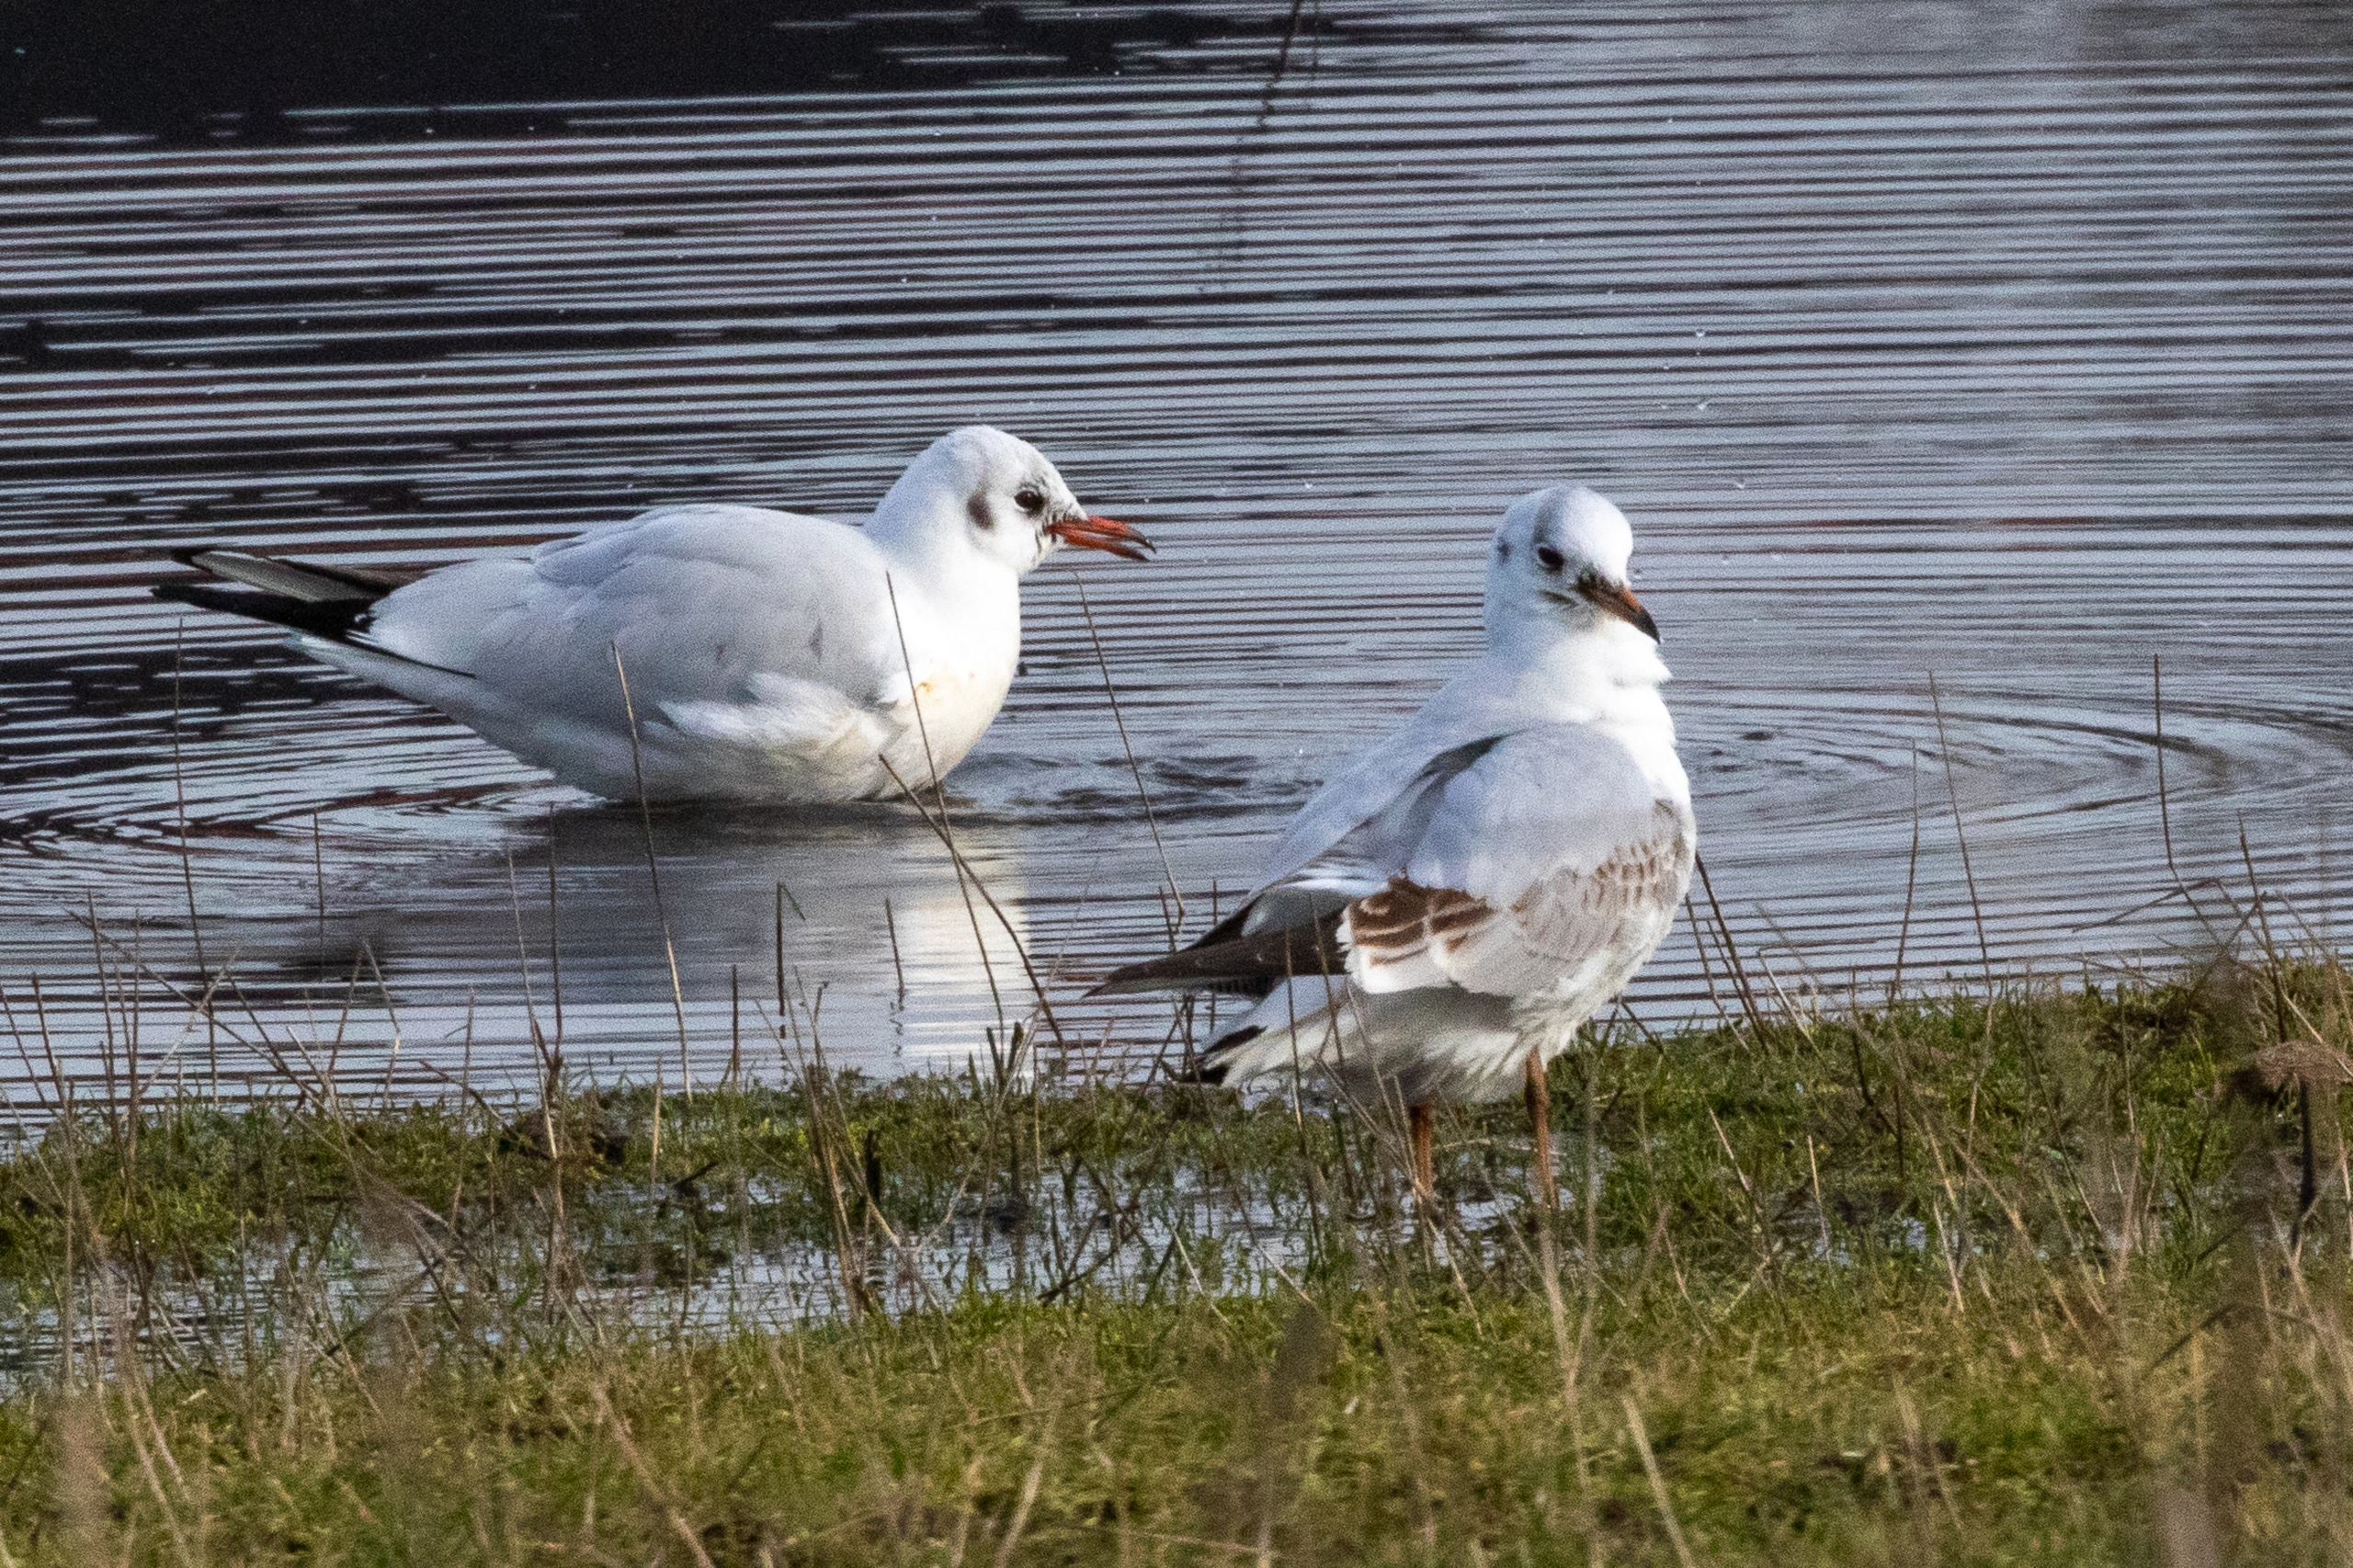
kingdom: Animalia
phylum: Chordata
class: Aves
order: Charadriiformes
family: Laridae
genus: Chroicocephalus
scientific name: Chroicocephalus ridibundus
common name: Hættemåge
